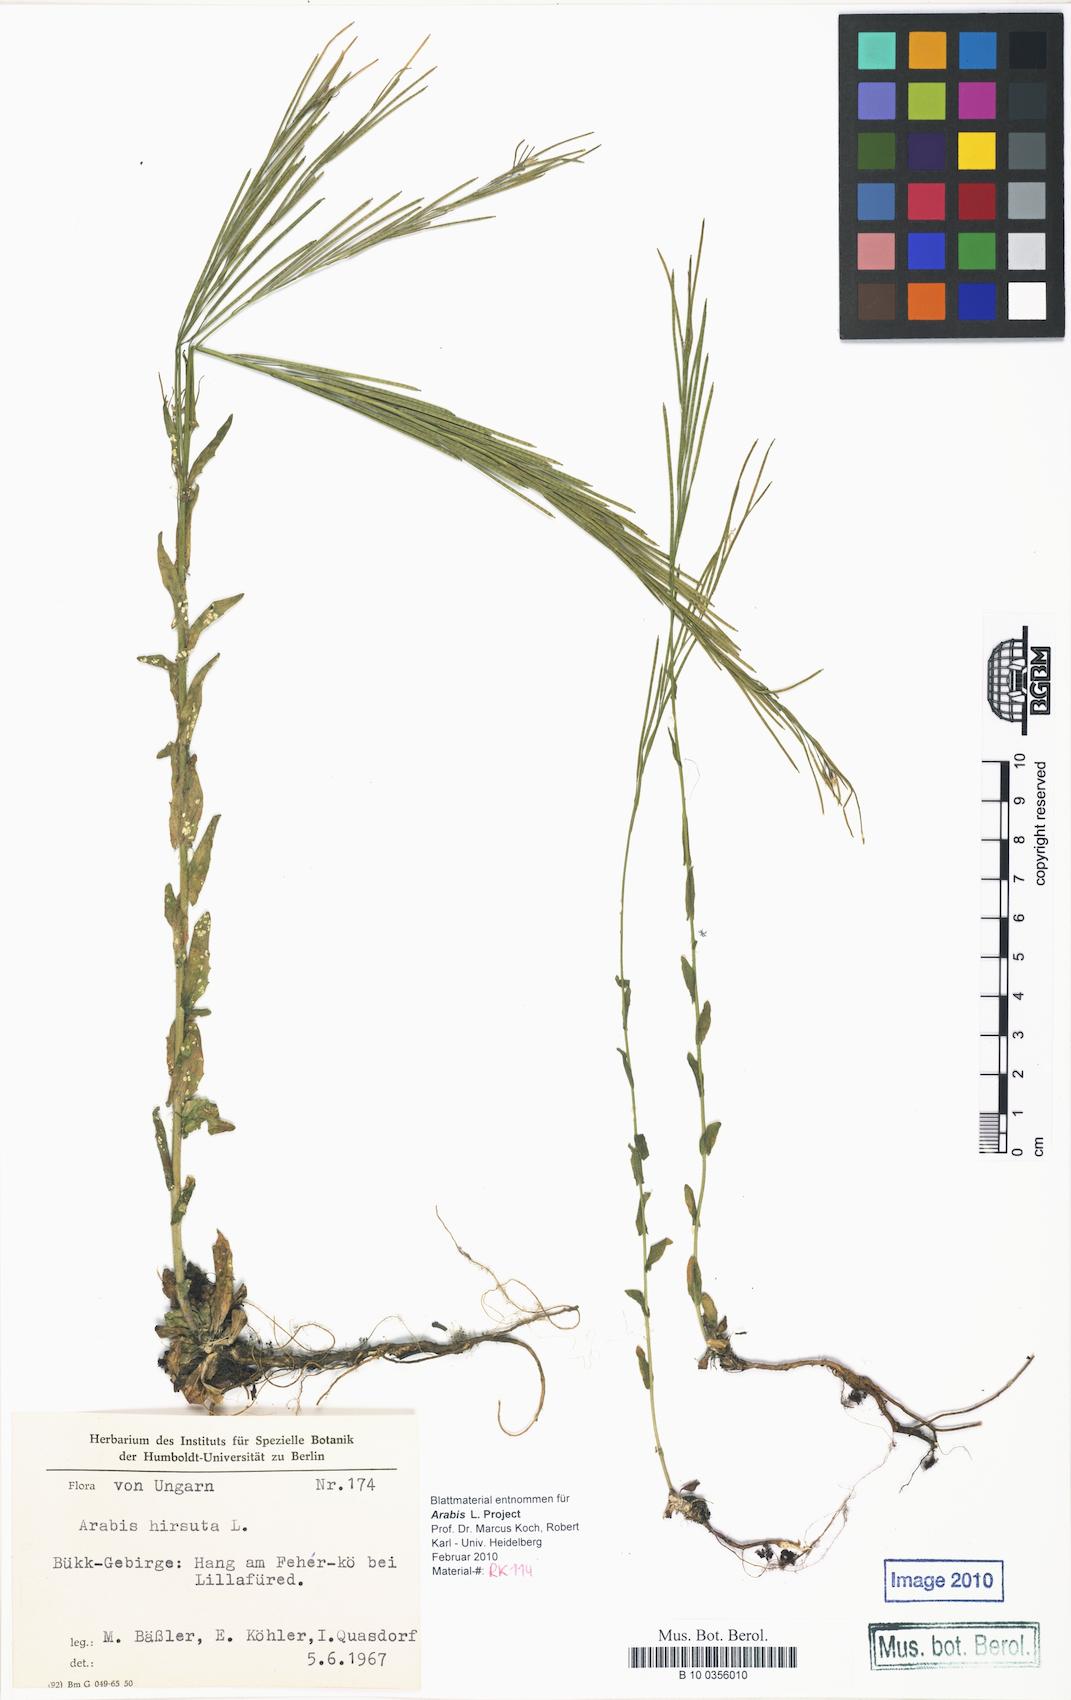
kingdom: Plantae
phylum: Tracheophyta
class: Magnoliopsida
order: Brassicales
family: Brassicaceae
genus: Arabis
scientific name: Arabis hirsuta
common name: Hairy rock-cress
